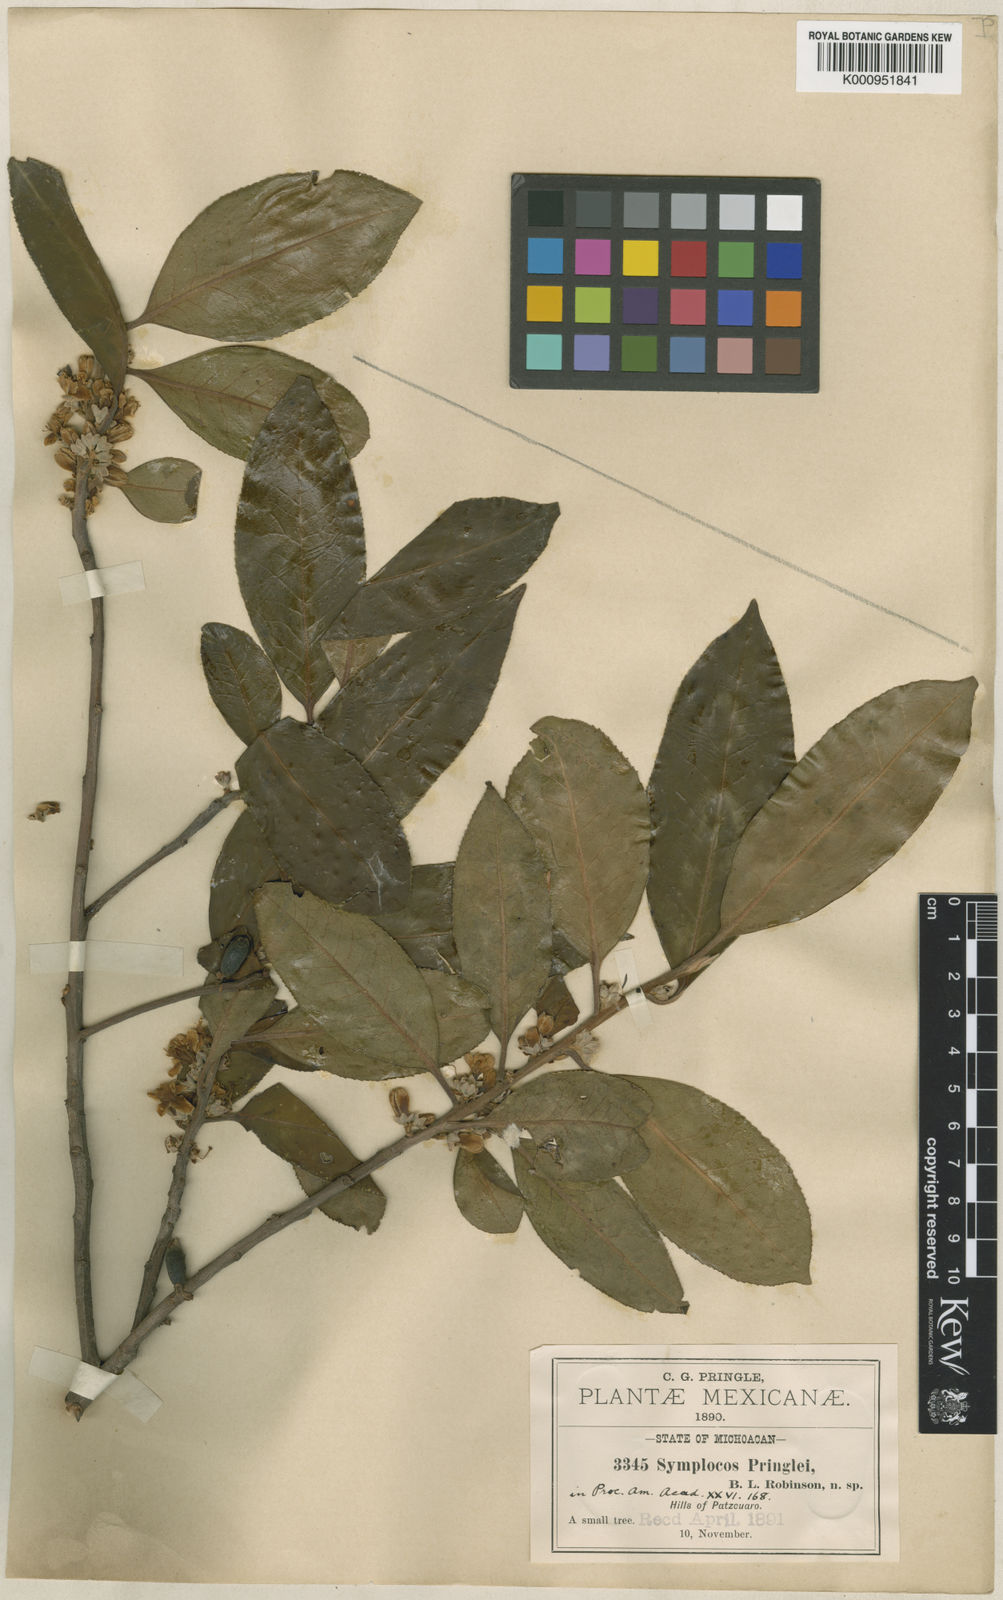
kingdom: Plantae
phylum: Tracheophyta
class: Magnoliopsida
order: Ericales
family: Symplocaceae
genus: Symplocos
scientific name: Symplocos citrea
